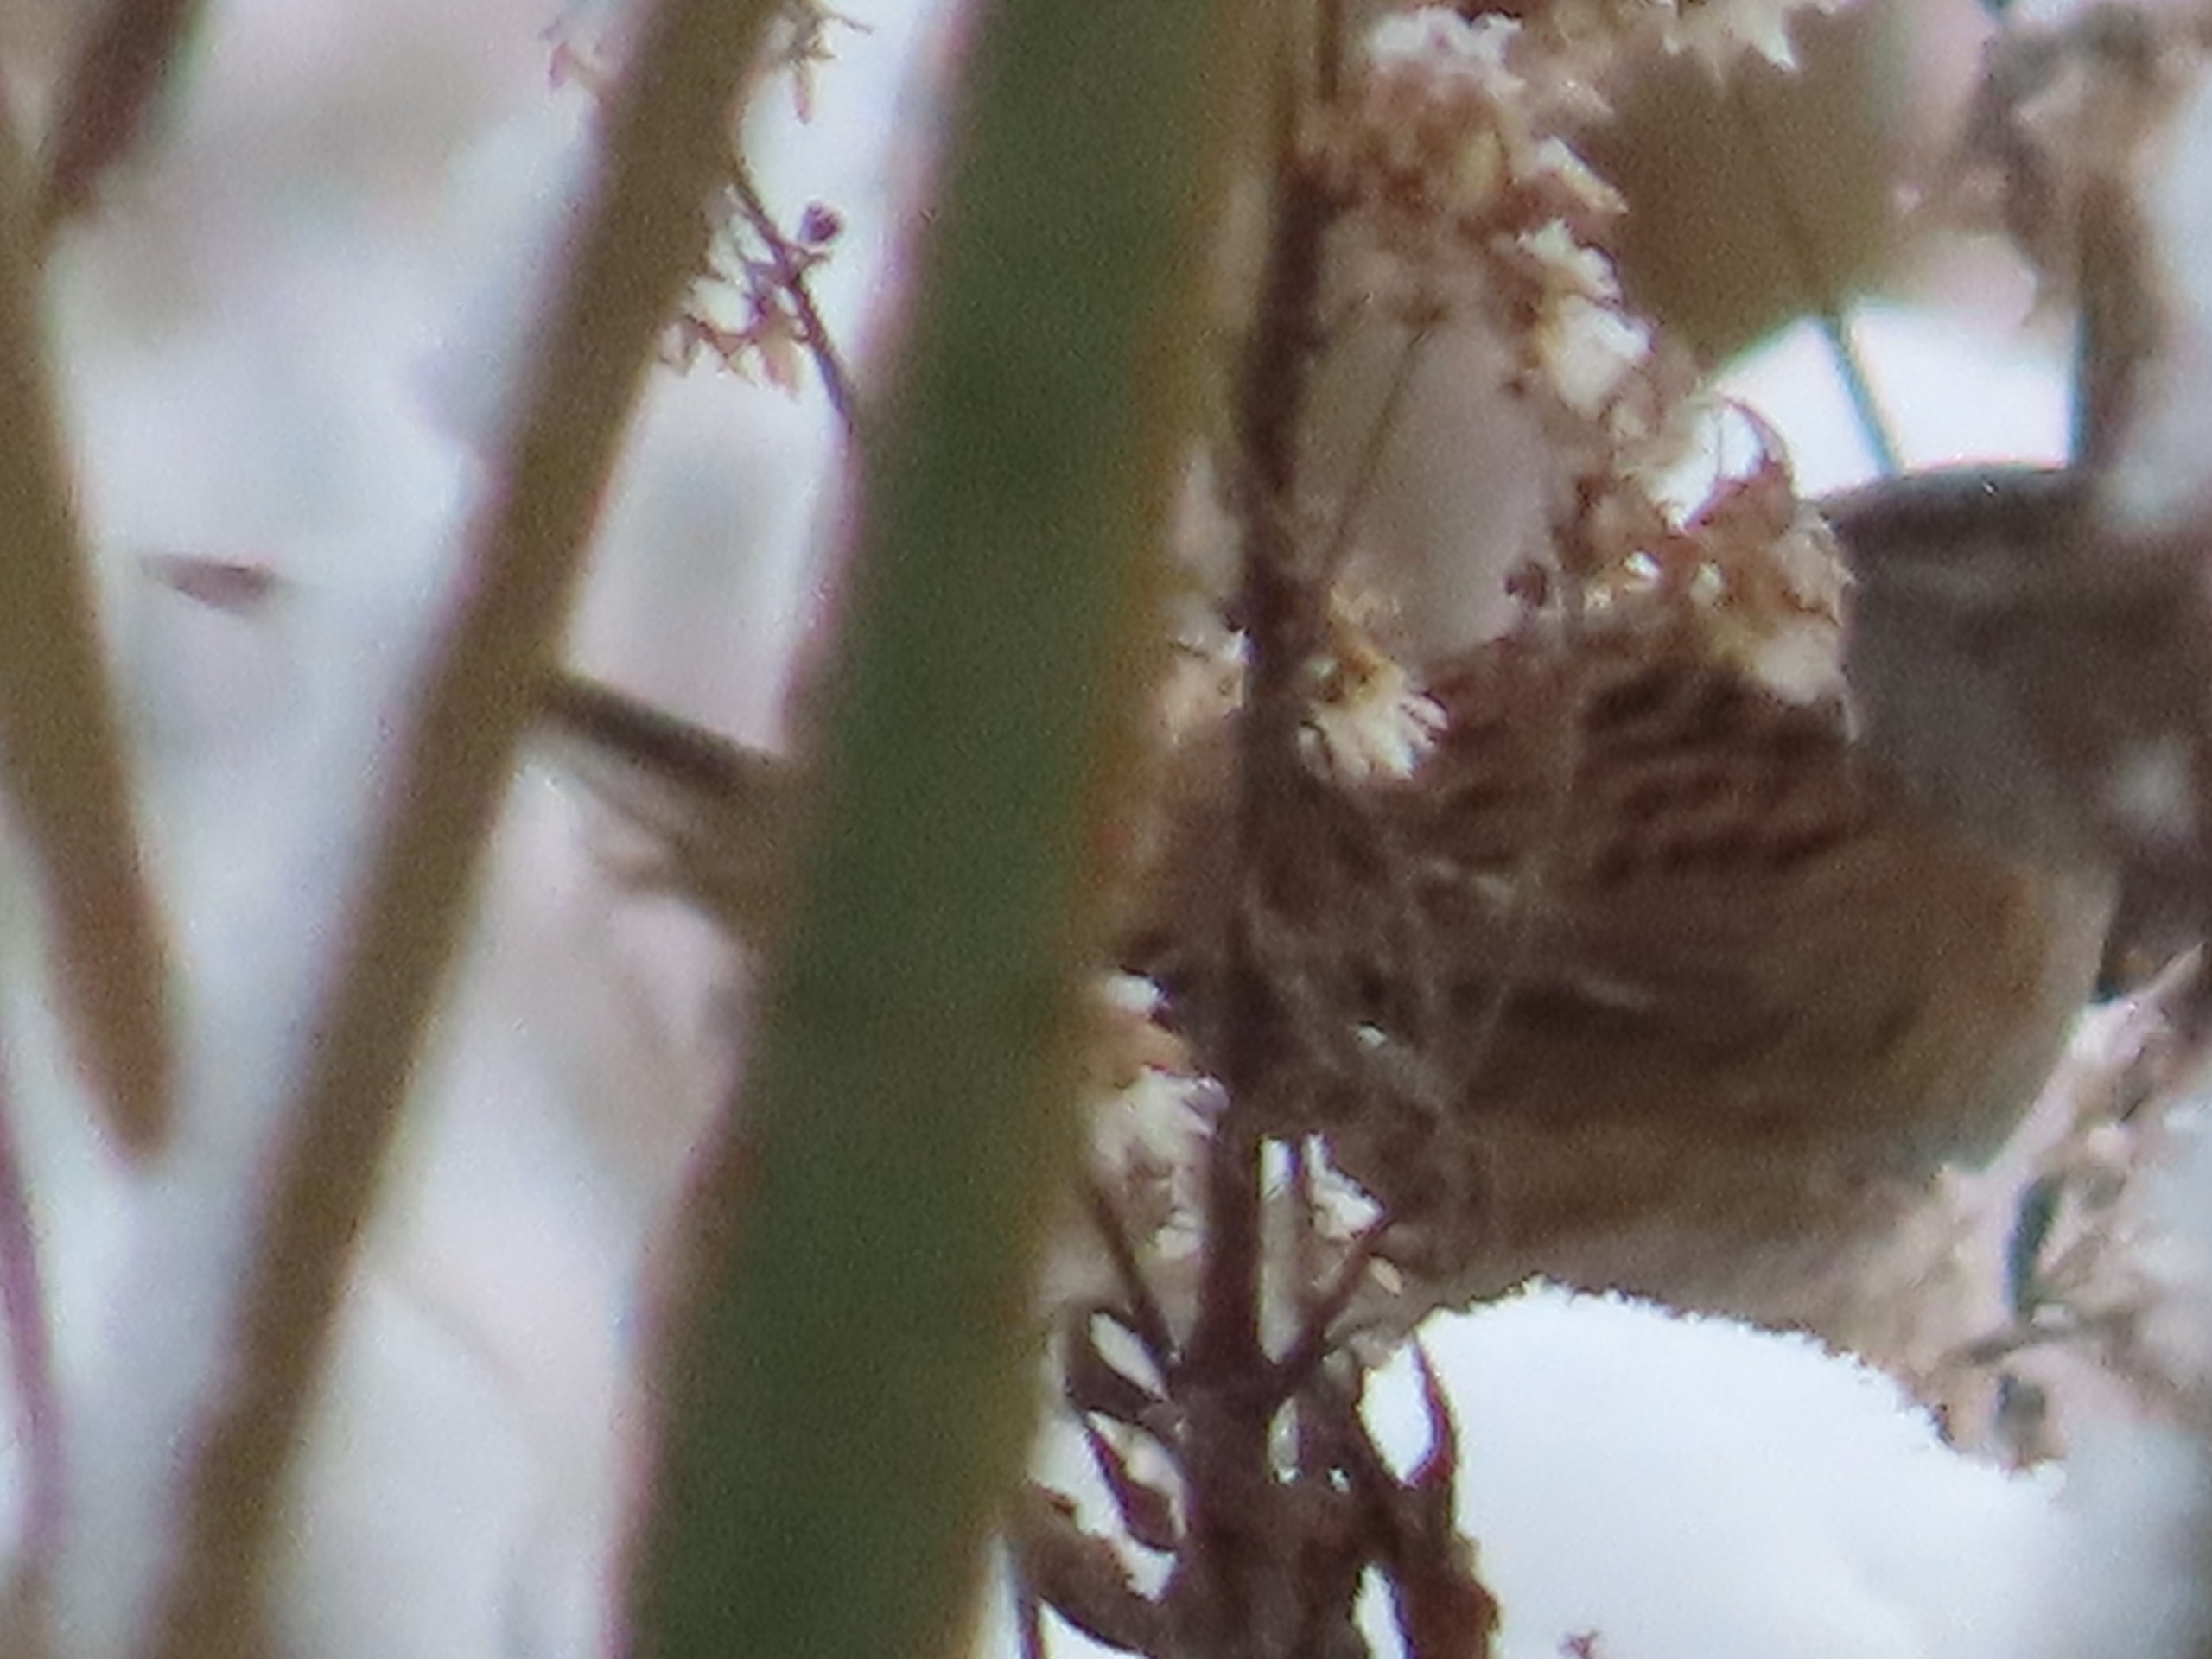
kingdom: Animalia
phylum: Chordata
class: Aves
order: Passeriformes
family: Prunellidae
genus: Prunella
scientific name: Prunella modularis
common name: Jernspurv
